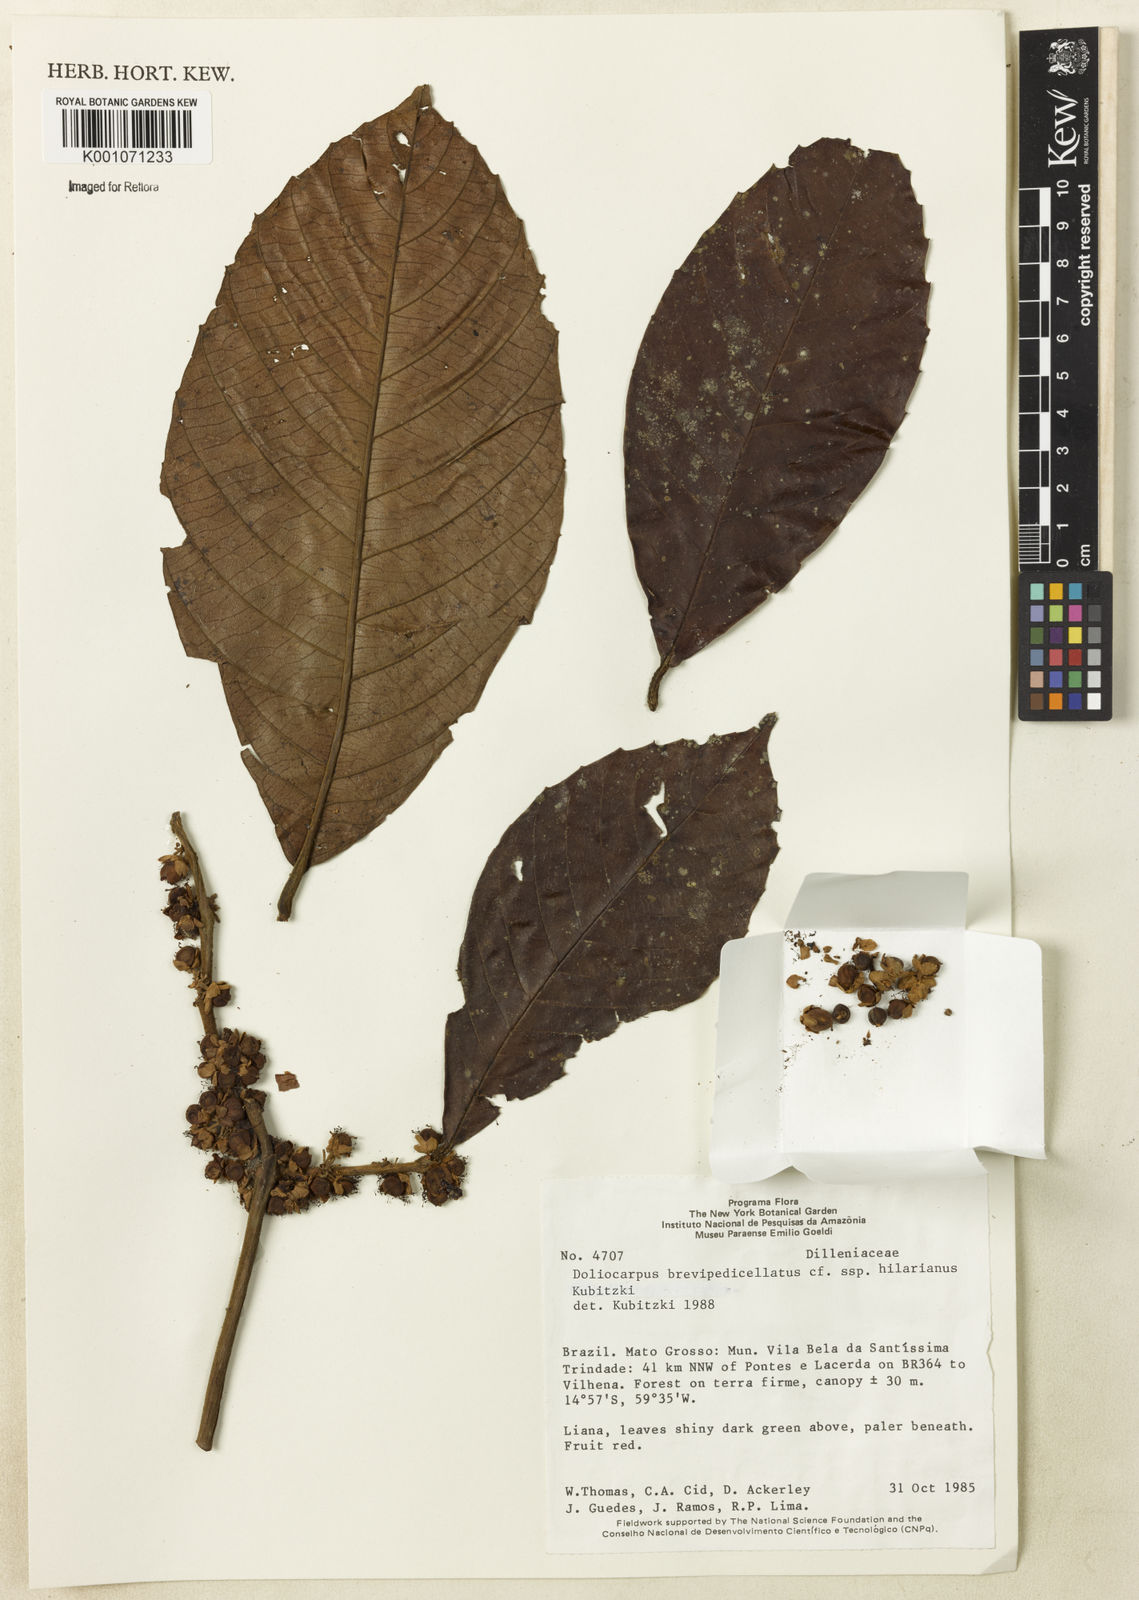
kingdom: Plantae
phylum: Tracheophyta
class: Magnoliopsida
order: Dilleniales
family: Dilleniaceae
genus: Doliocarpus
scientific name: Doliocarpus hilarianus
